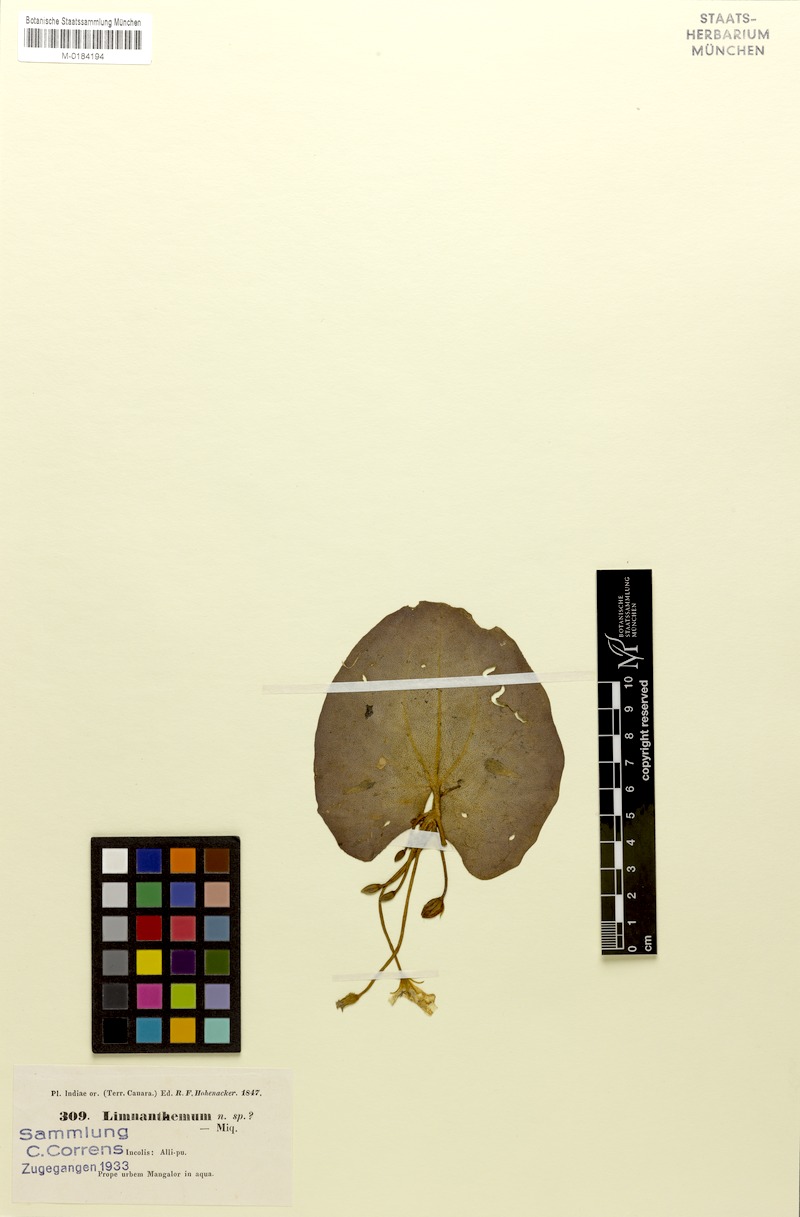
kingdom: Plantae
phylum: Tracheophyta
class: Magnoliopsida
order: Asterales
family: Menyanthaceae
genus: Nymphoides
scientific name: Nymphoides indica
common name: Water-snowflake
